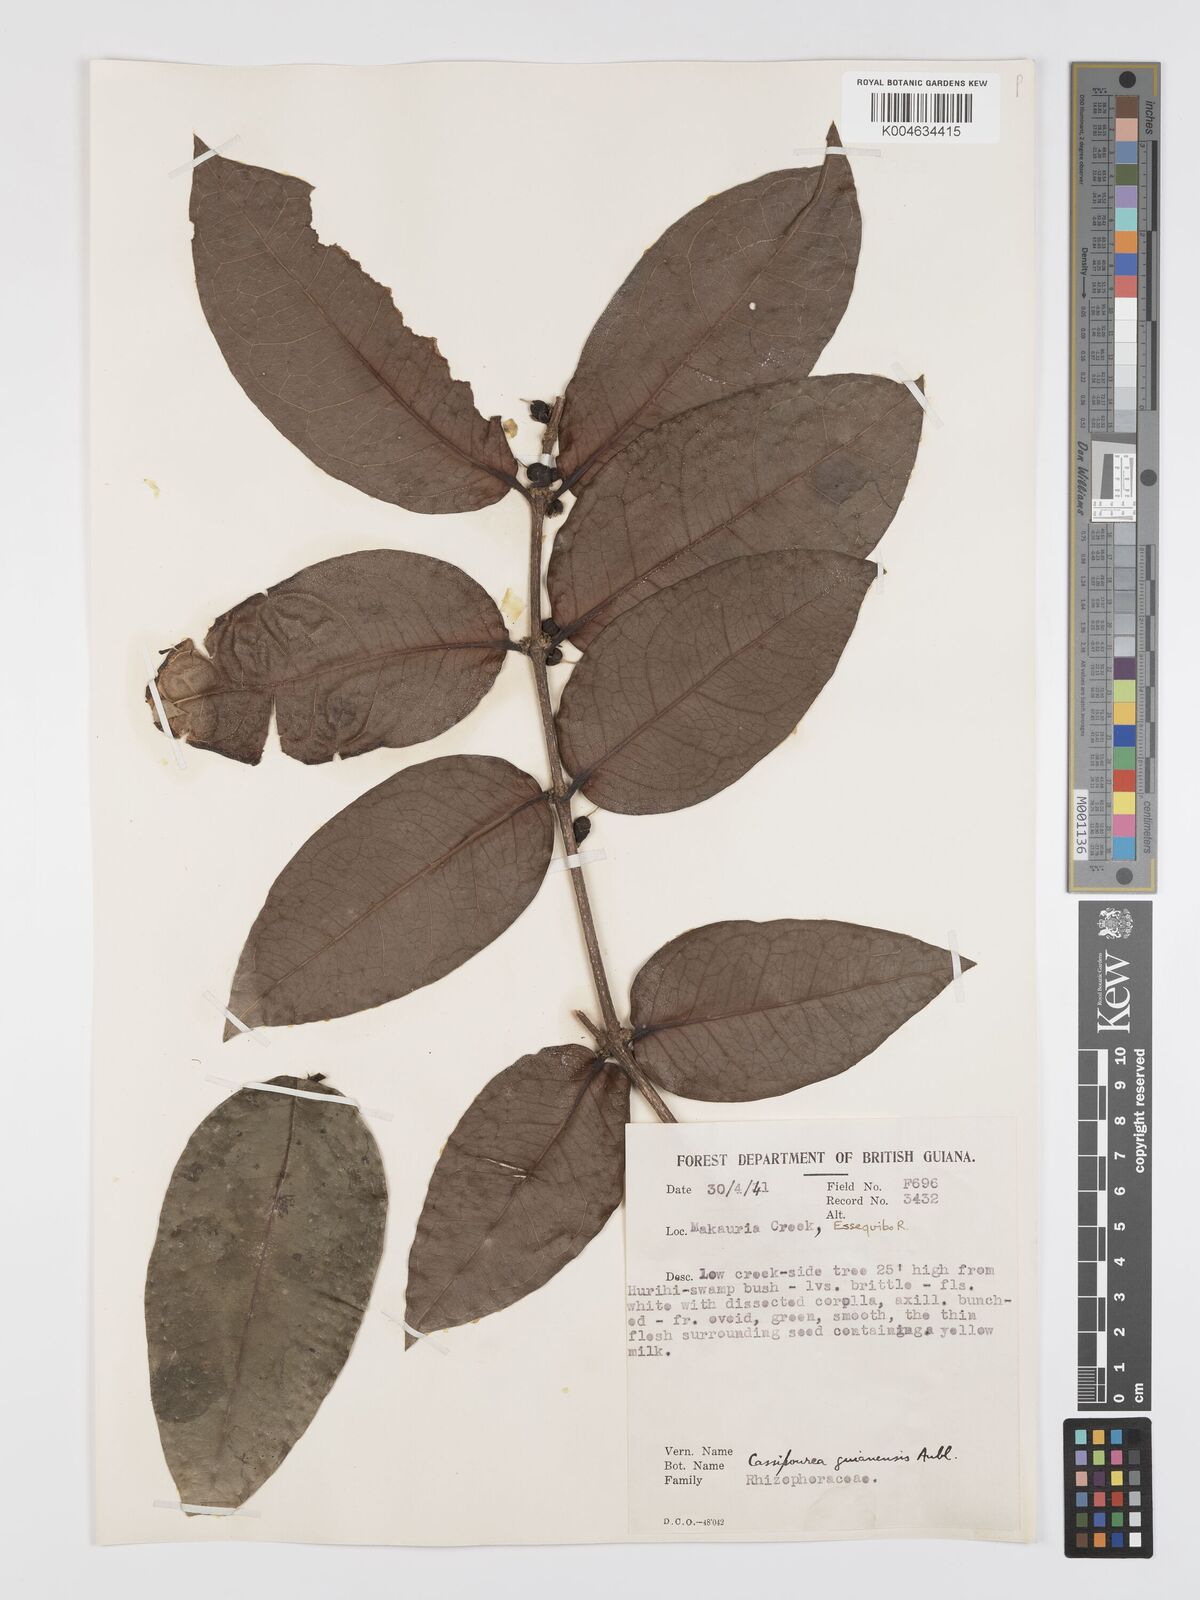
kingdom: Plantae
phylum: Tracheophyta
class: Magnoliopsida
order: Malpighiales
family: Rhizophoraceae
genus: Cassipourea
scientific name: Cassipourea guianensis
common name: Bastard waterwood
